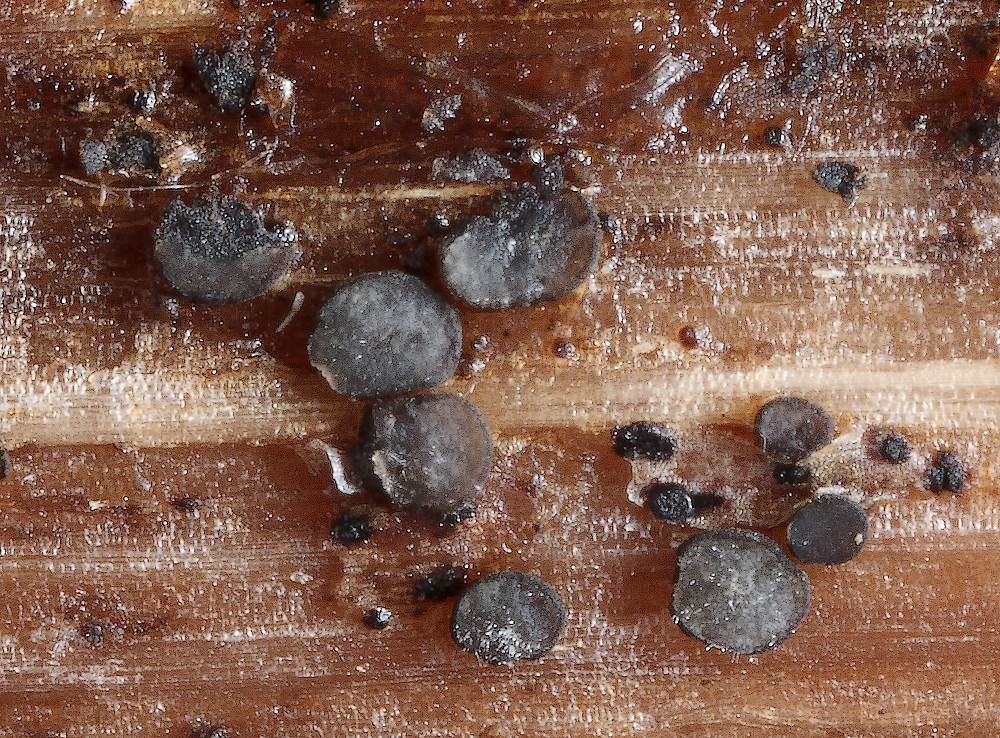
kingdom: Fungi
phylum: Ascomycota
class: Leotiomycetes
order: Helotiales
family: Dermateaceae
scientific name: Dermateaceae
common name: gråskivefamilien
